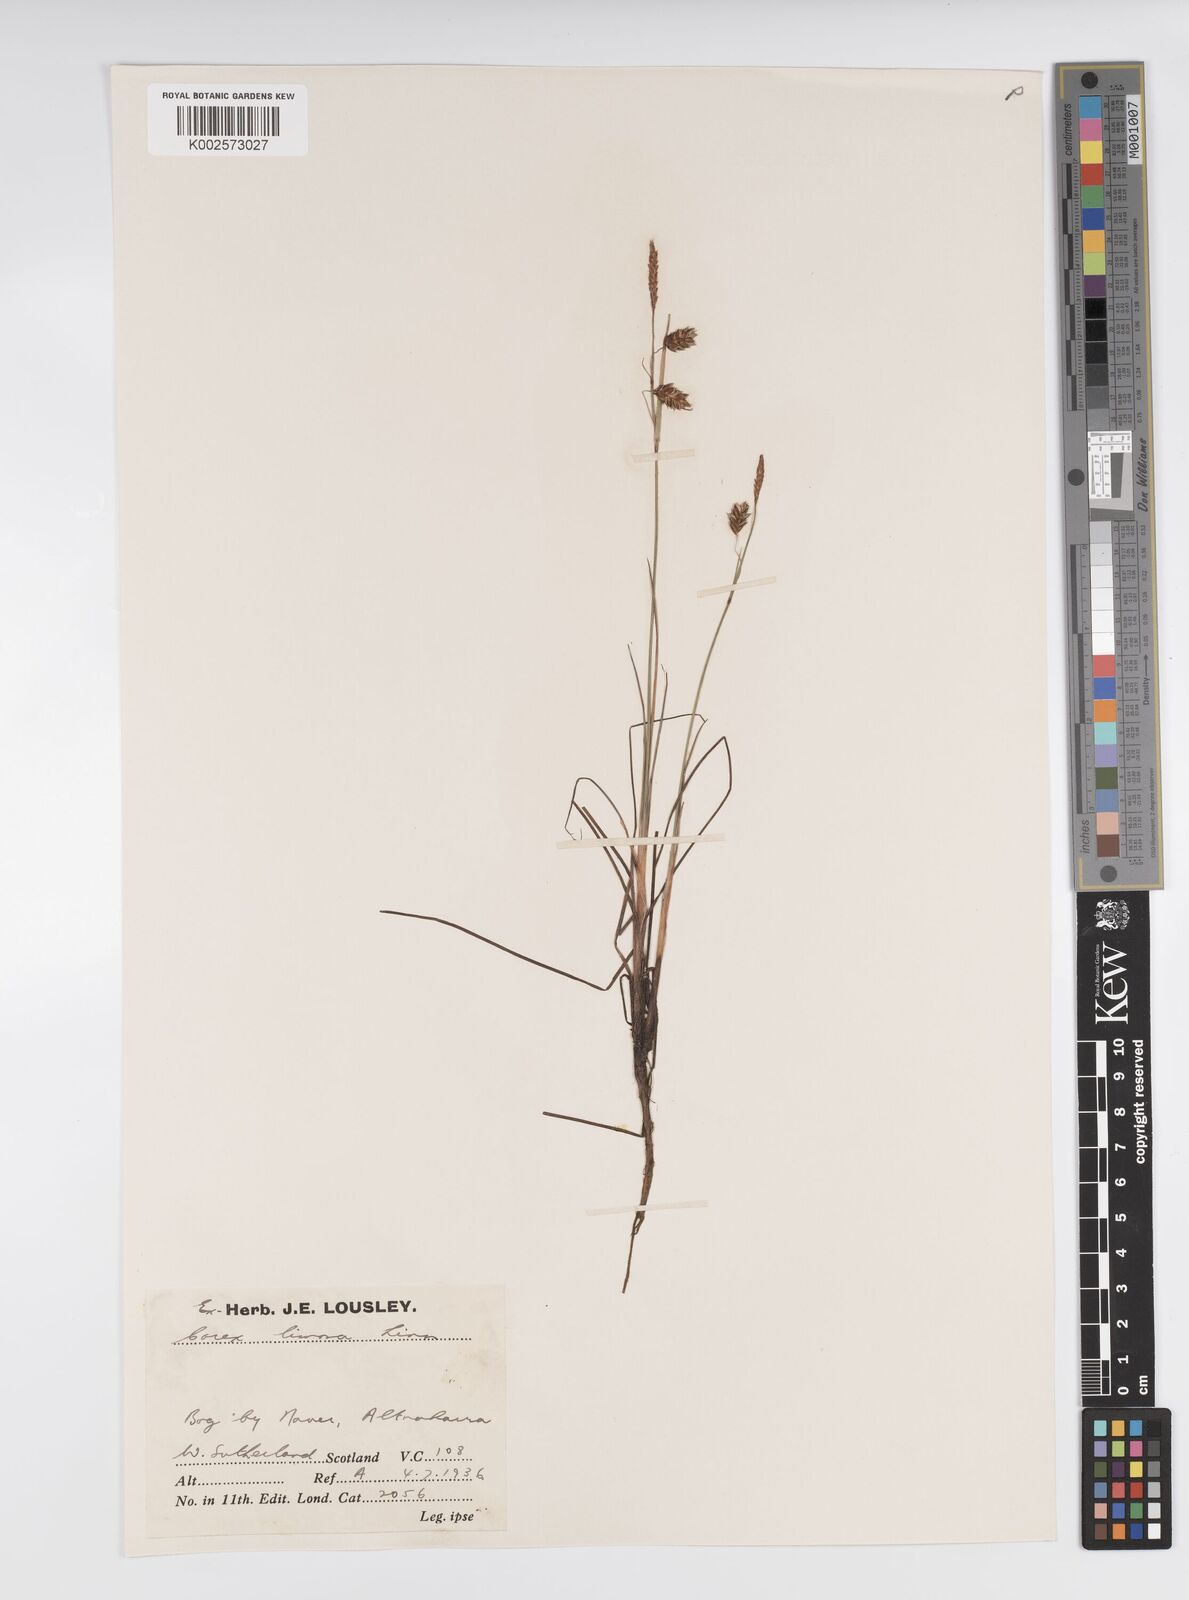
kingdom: Plantae
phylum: Tracheophyta
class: Liliopsida
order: Poales
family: Cyperaceae
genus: Carex
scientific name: Carex limosa
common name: Bog sedge
